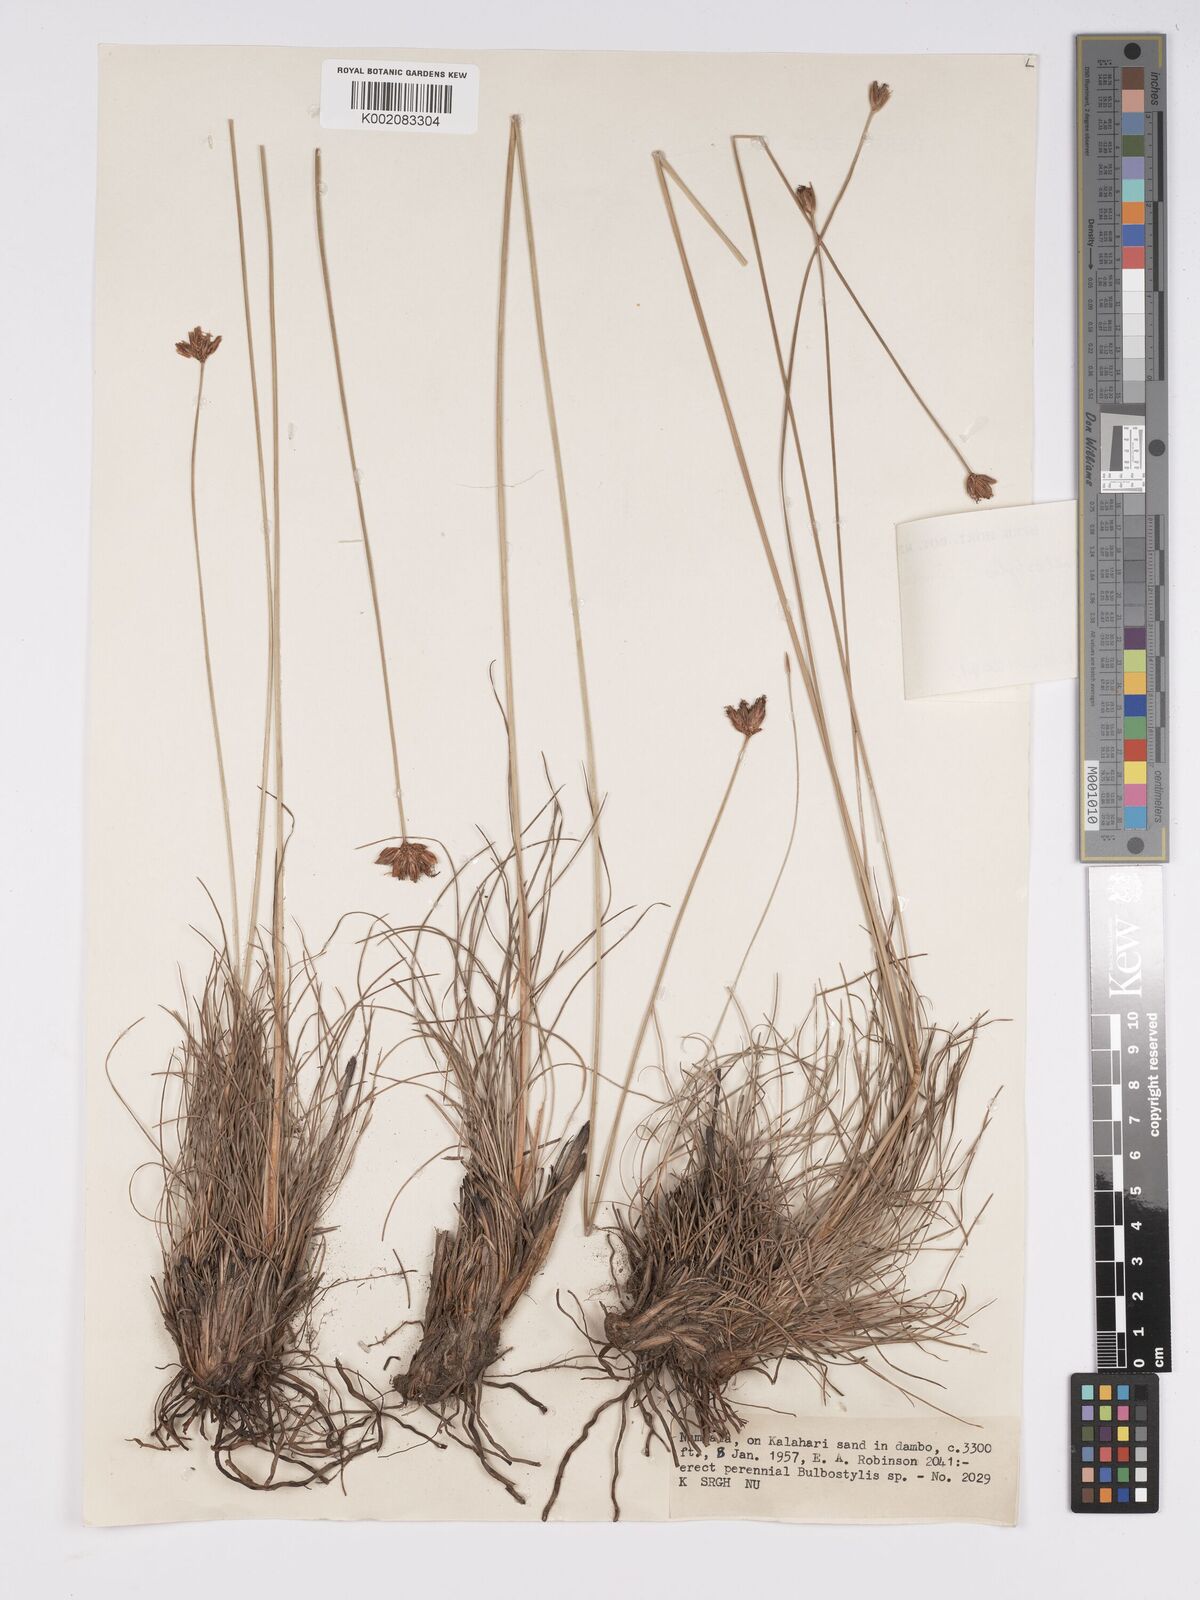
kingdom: Plantae
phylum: Tracheophyta
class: Liliopsida
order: Poales
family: Cyperaceae
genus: Bulbostylis
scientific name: Bulbostylis schoenoides
